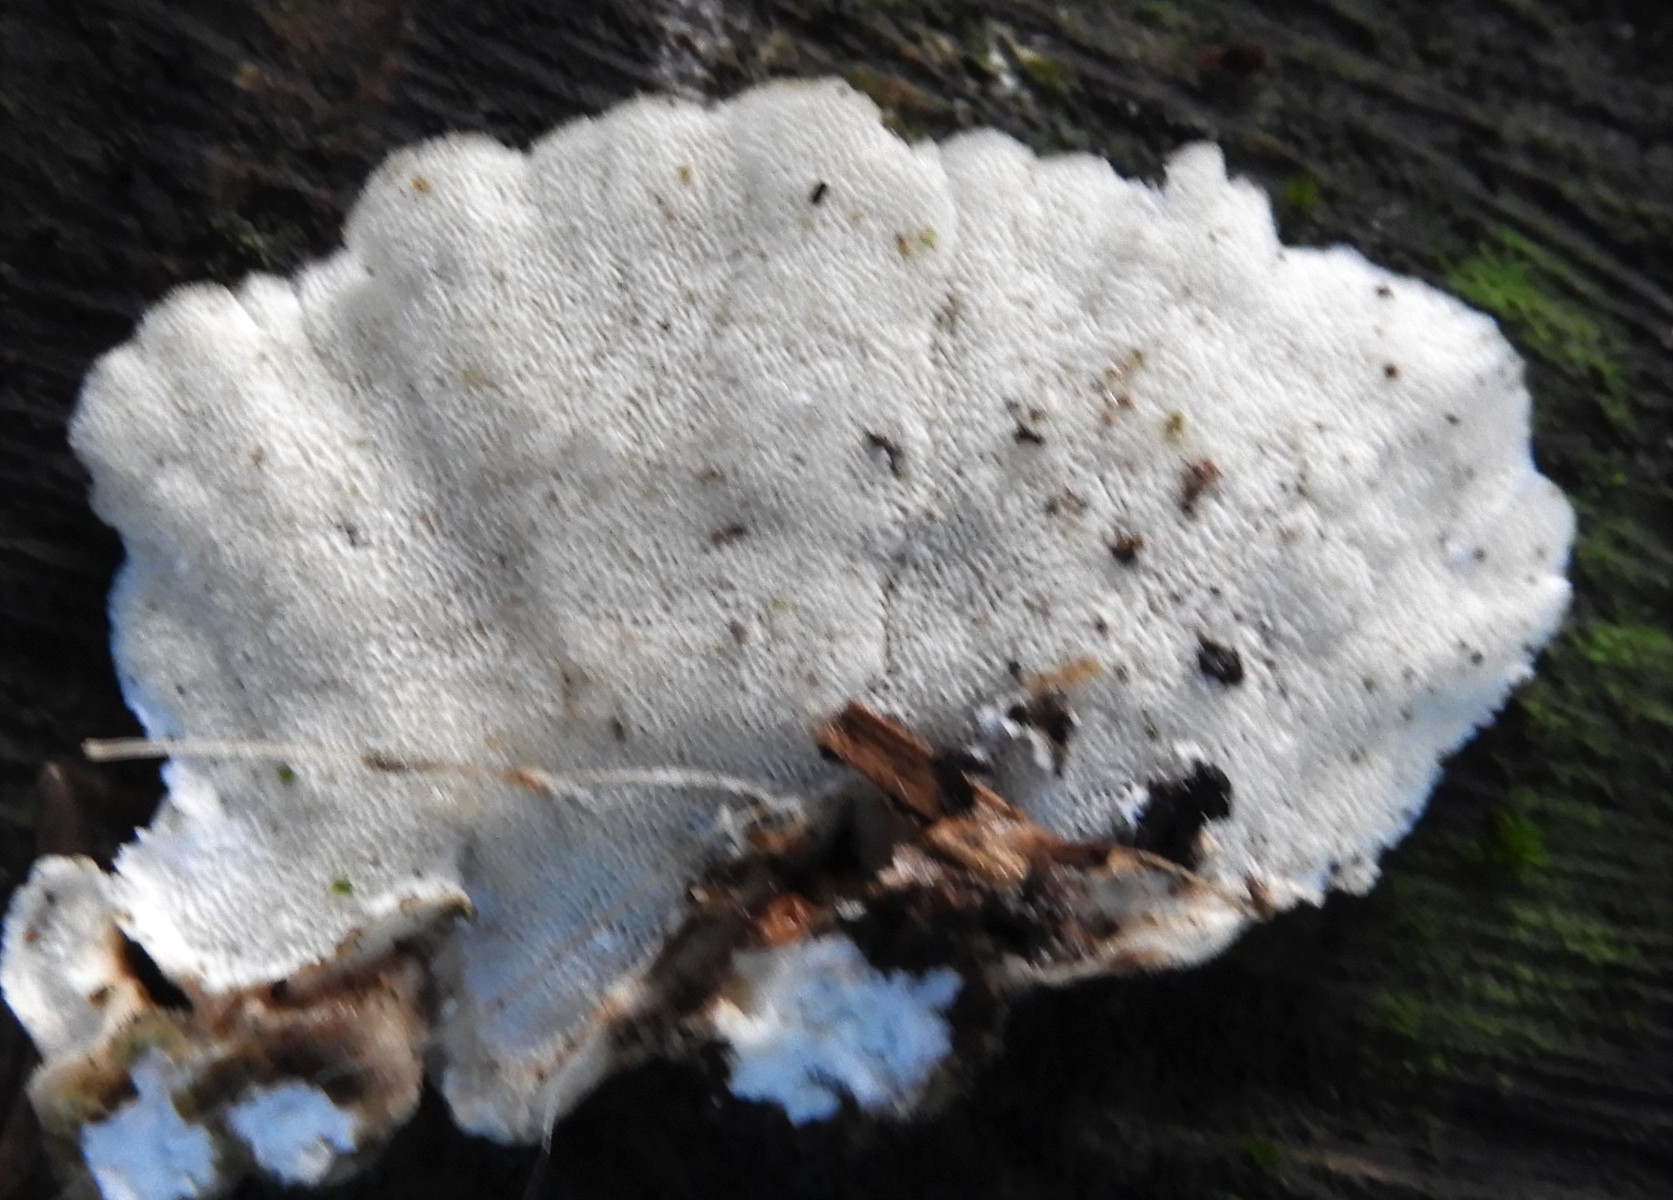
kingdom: Fungi
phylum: Basidiomycota
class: Agaricomycetes
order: Polyporales
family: Polyporaceae
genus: Trametes
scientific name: Trametes ochracea
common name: bæltet læderporesvamp
